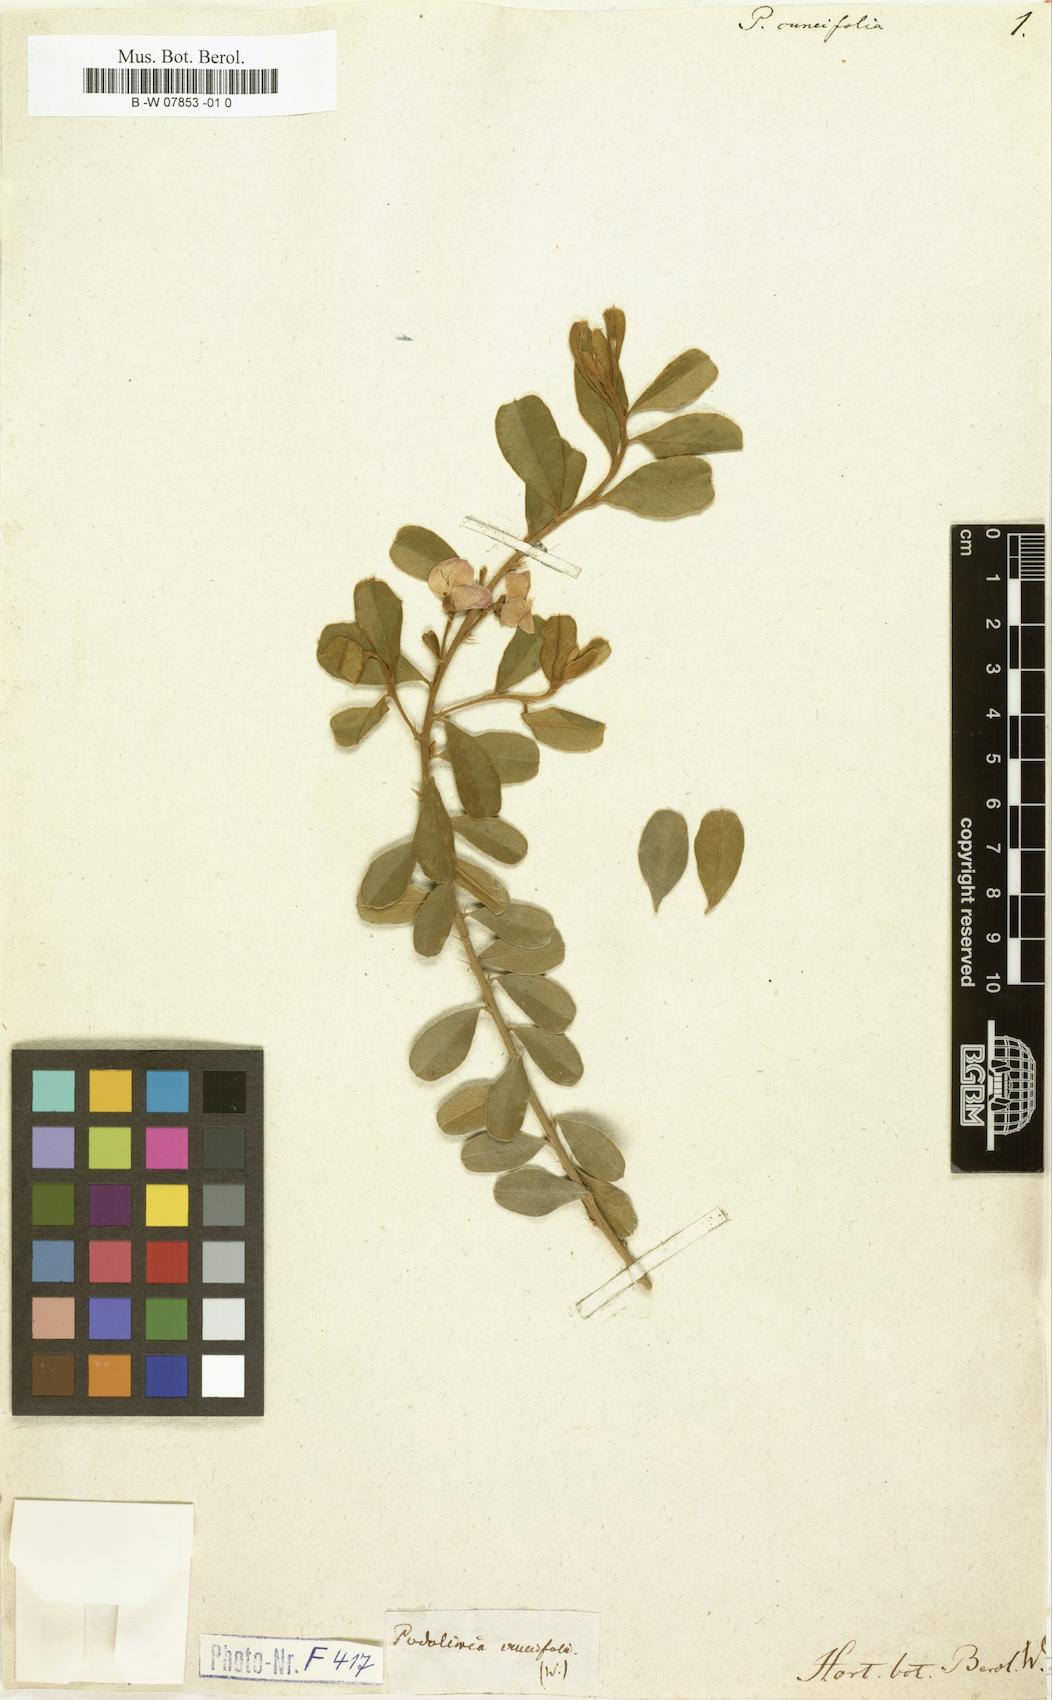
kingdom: Plantae
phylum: Tracheophyta
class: Magnoliopsida
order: Fabales
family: Fabaceae
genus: Podalyria
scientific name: Podalyria
